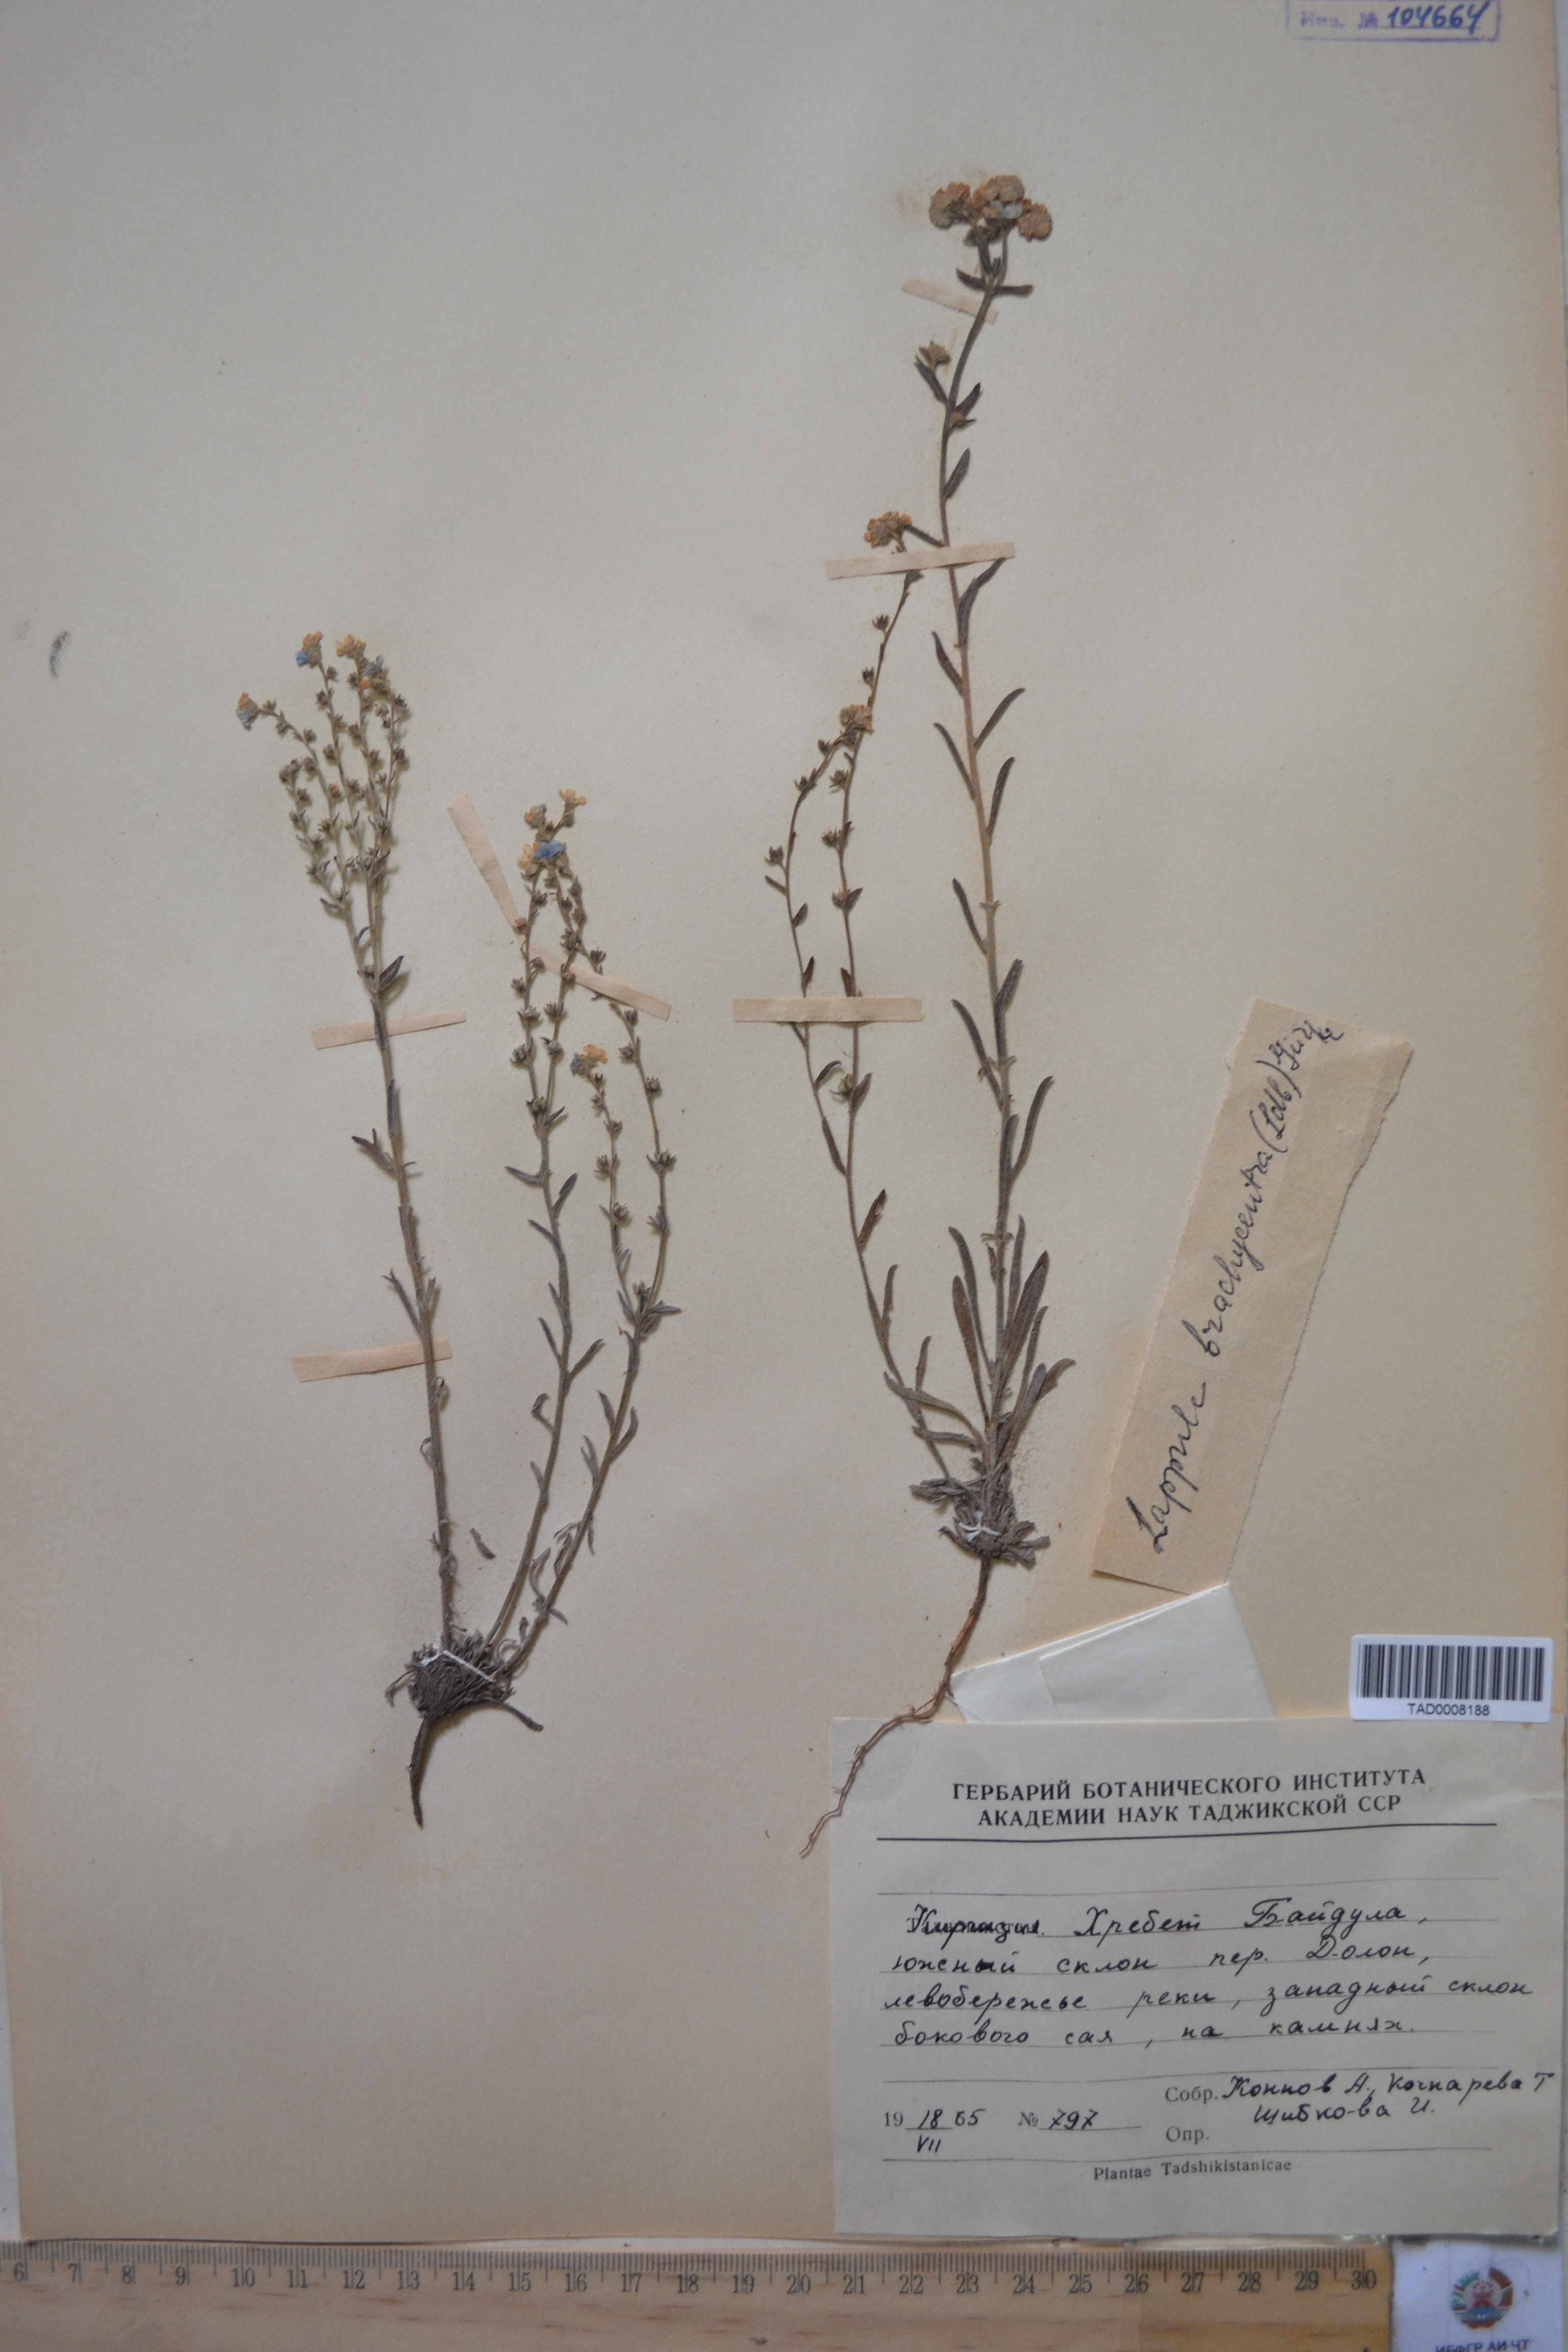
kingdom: Plantae
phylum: Tracheophyta
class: Magnoliopsida
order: Boraginales
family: Boraginaceae
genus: Lappula
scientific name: Lappula brachycentra
